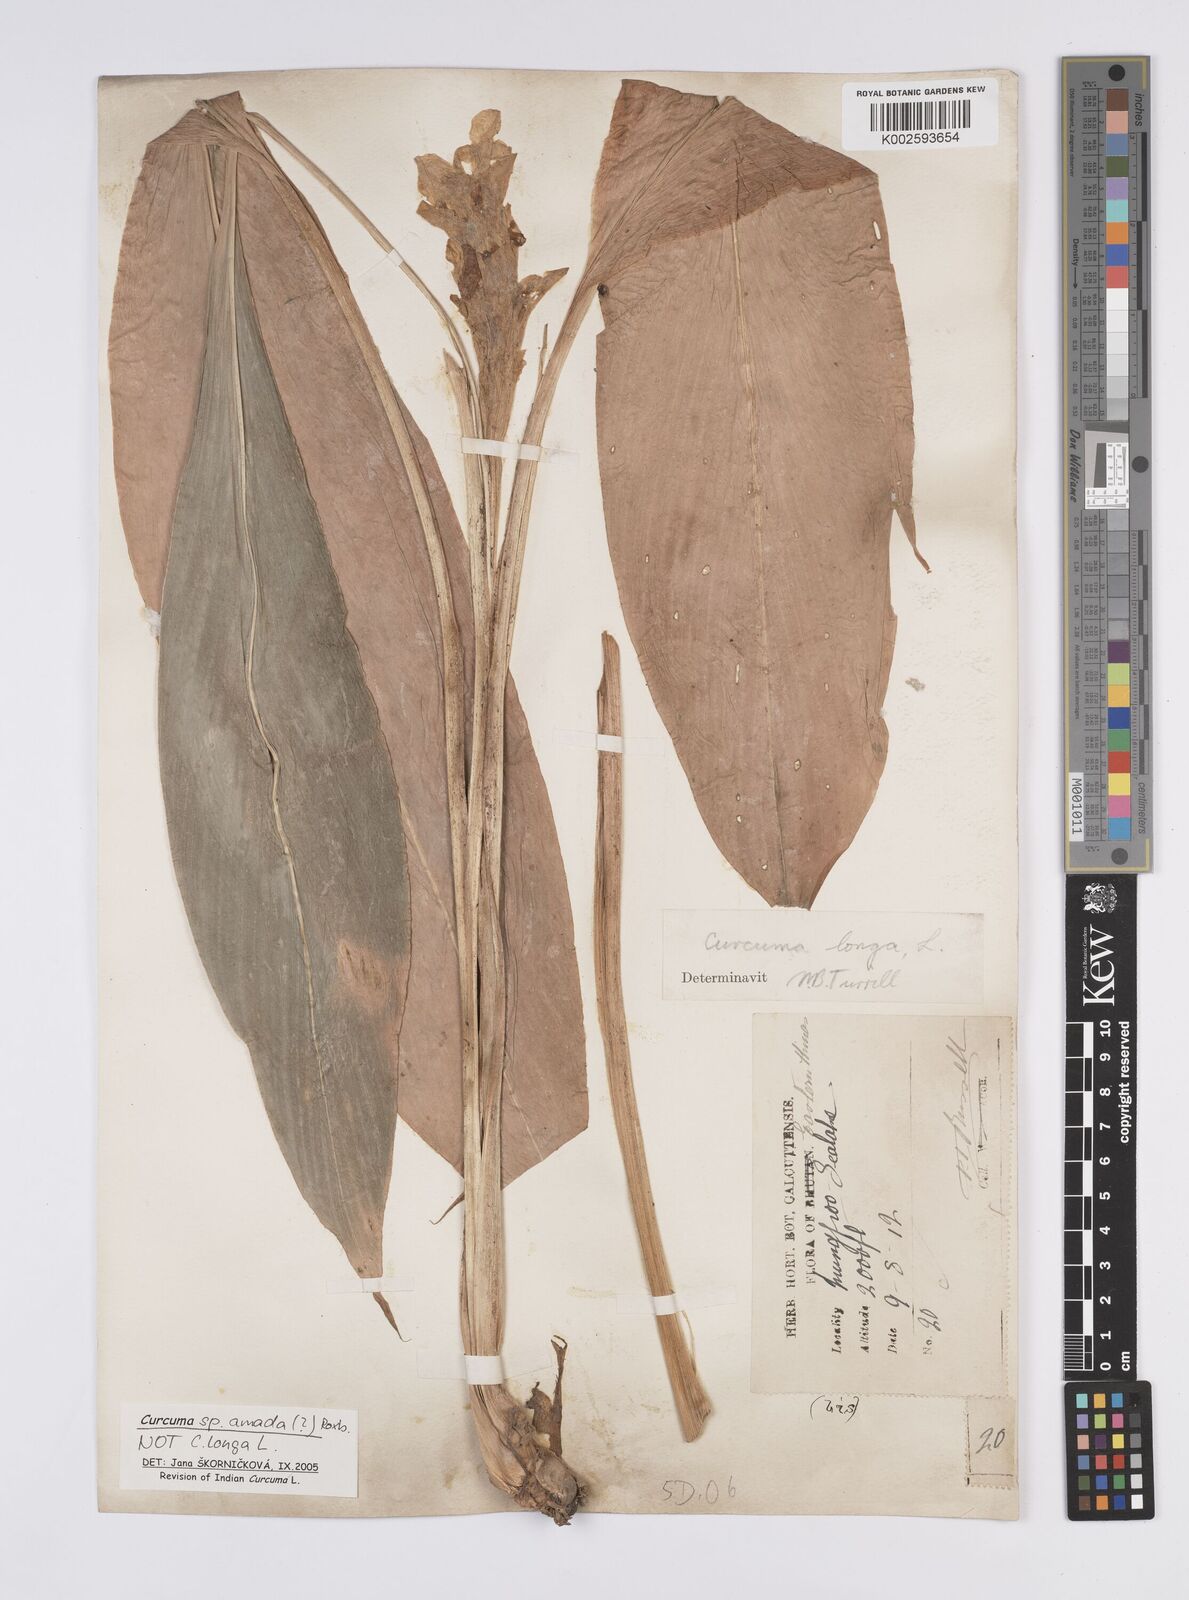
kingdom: Plantae
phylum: Tracheophyta
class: Liliopsida
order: Zingiberales
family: Zingiberaceae
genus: Curcuma
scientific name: Curcuma longa
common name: Turmeric
